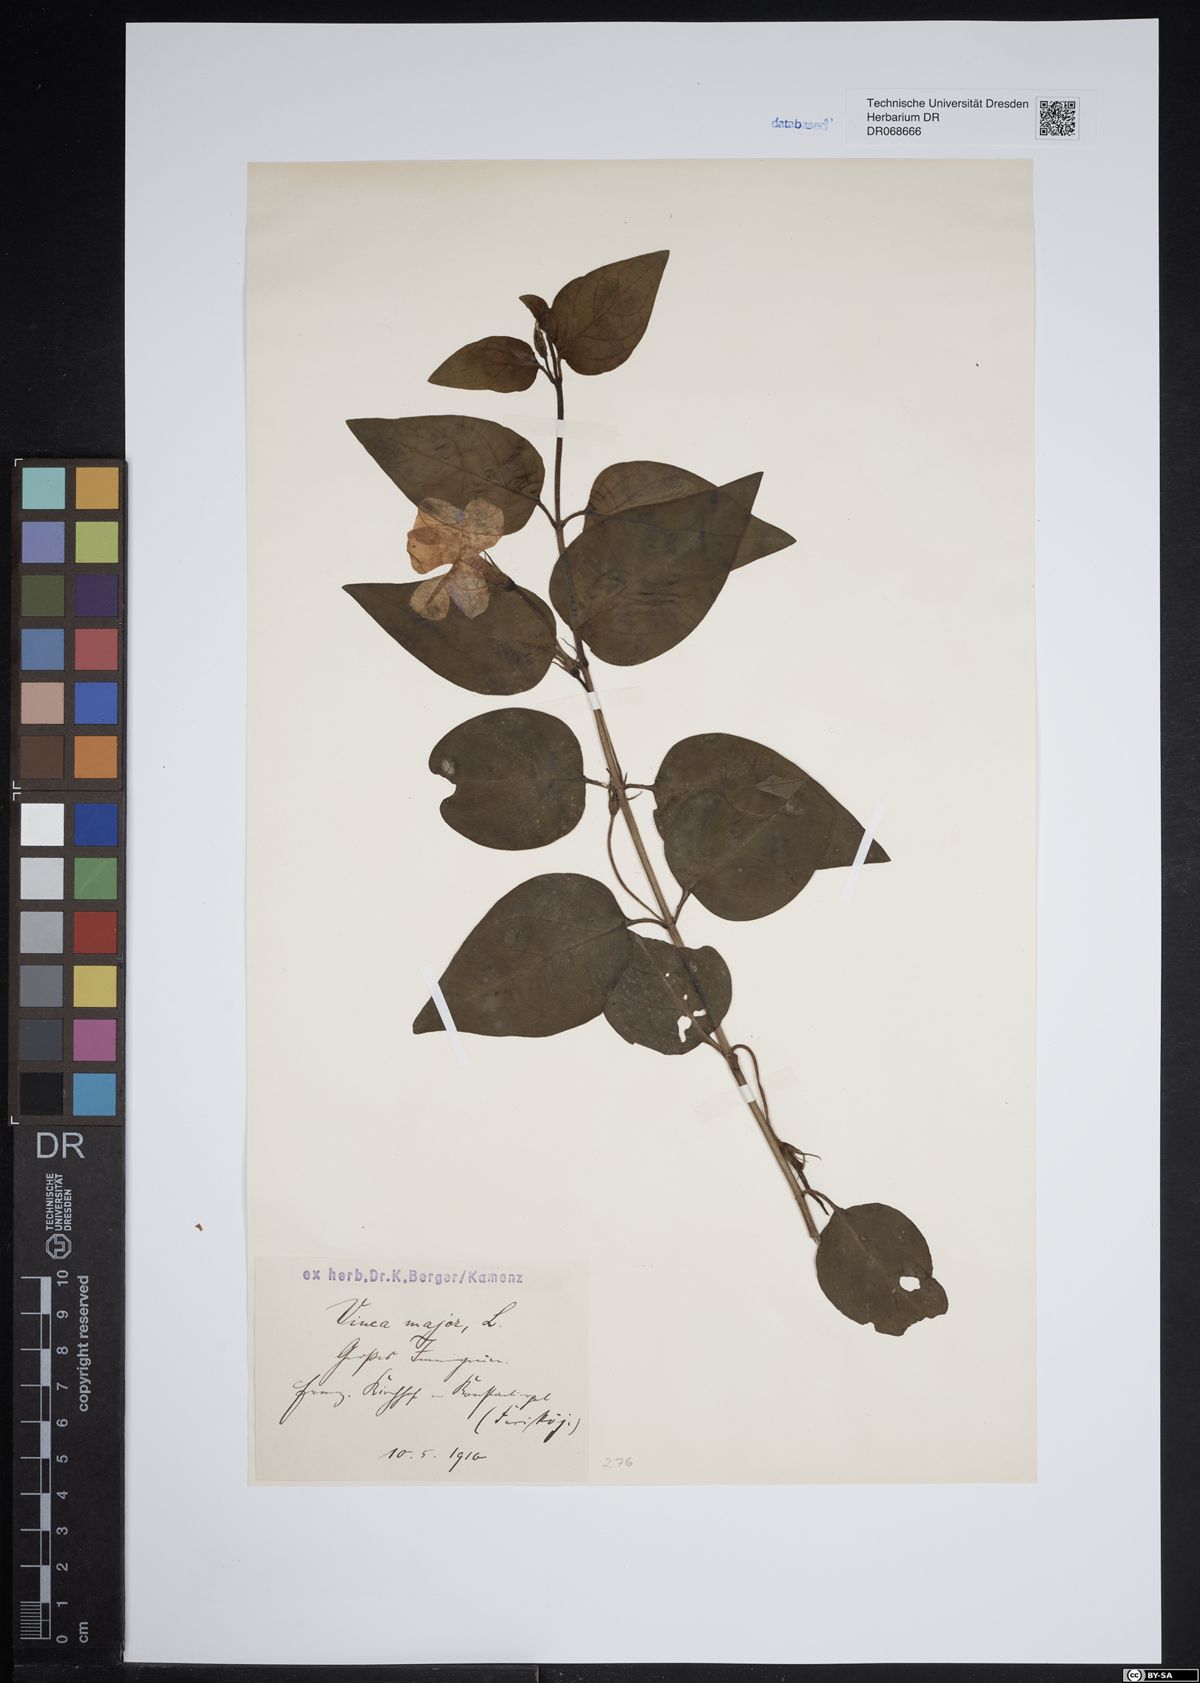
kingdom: Plantae
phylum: Tracheophyta
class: Magnoliopsida
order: Gentianales
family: Apocynaceae
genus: Vinca
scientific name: Vinca major
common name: Greater periwinkle
